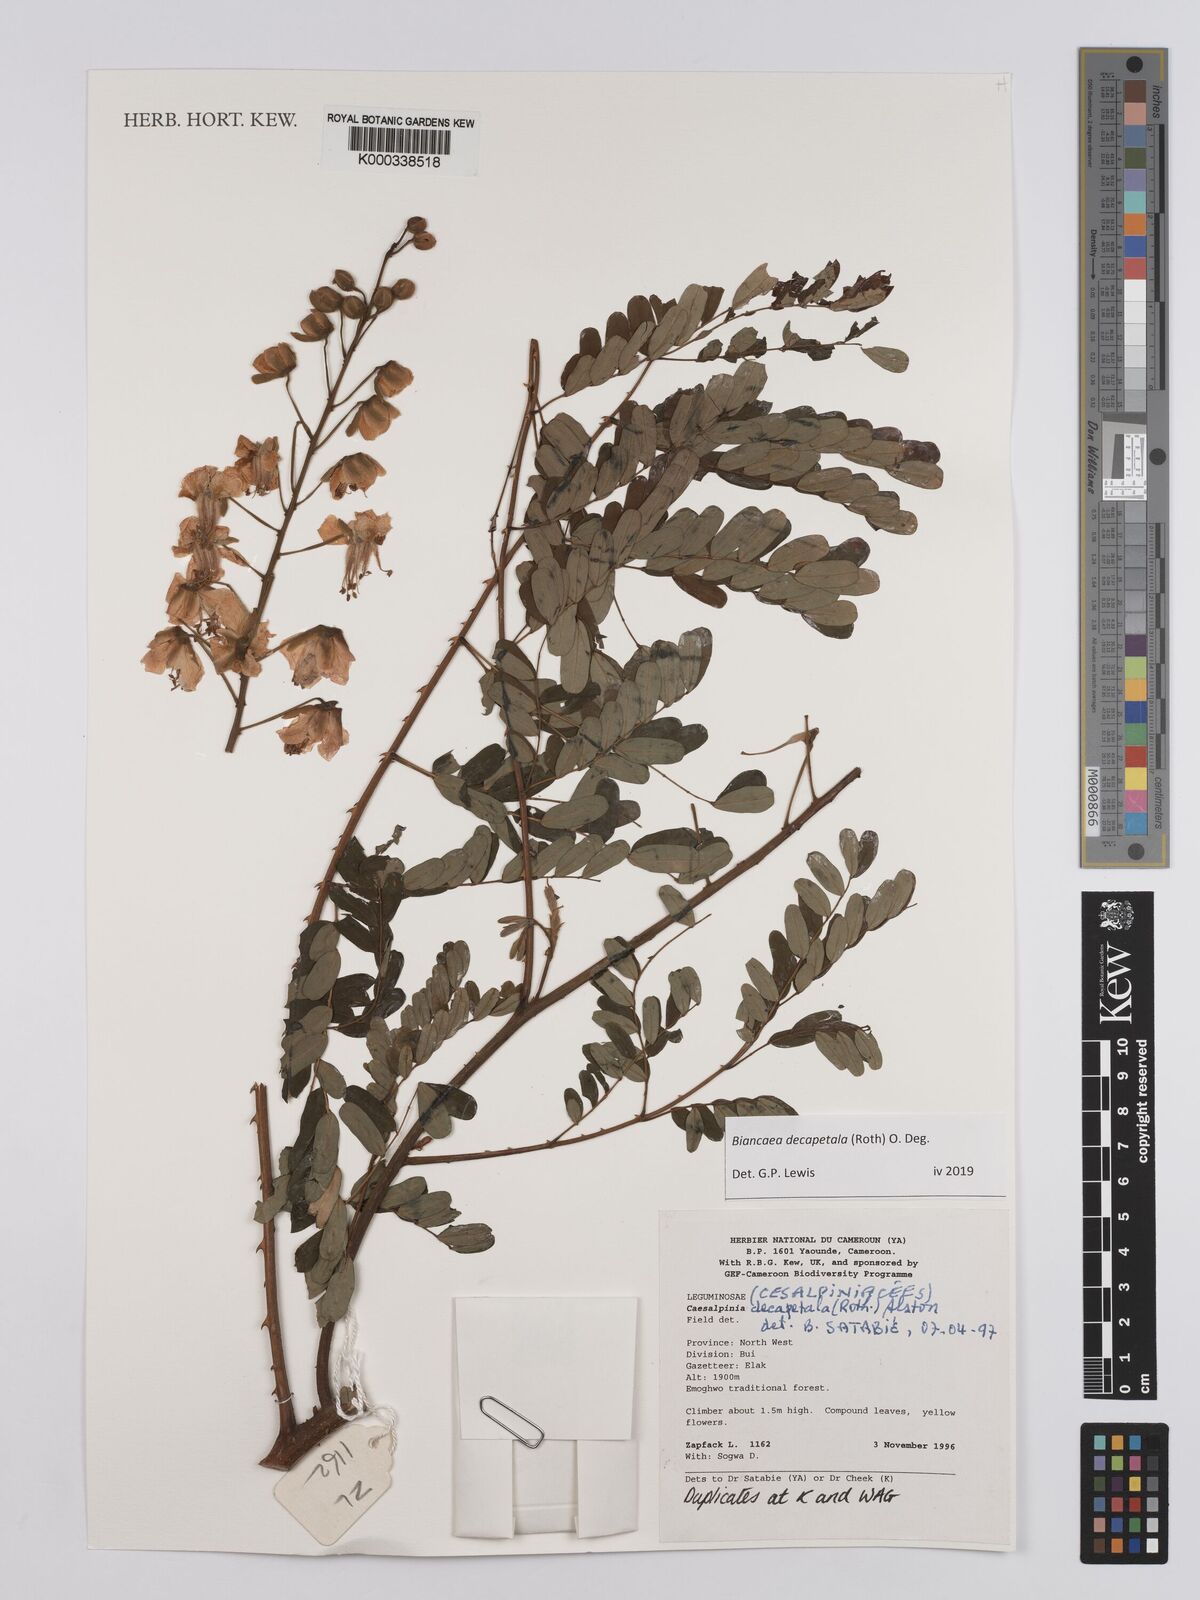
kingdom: Plantae
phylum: Tracheophyta
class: Magnoliopsida
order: Fabales
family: Fabaceae
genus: Biancaea
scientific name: Biancaea decapetala
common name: Cat's claw
